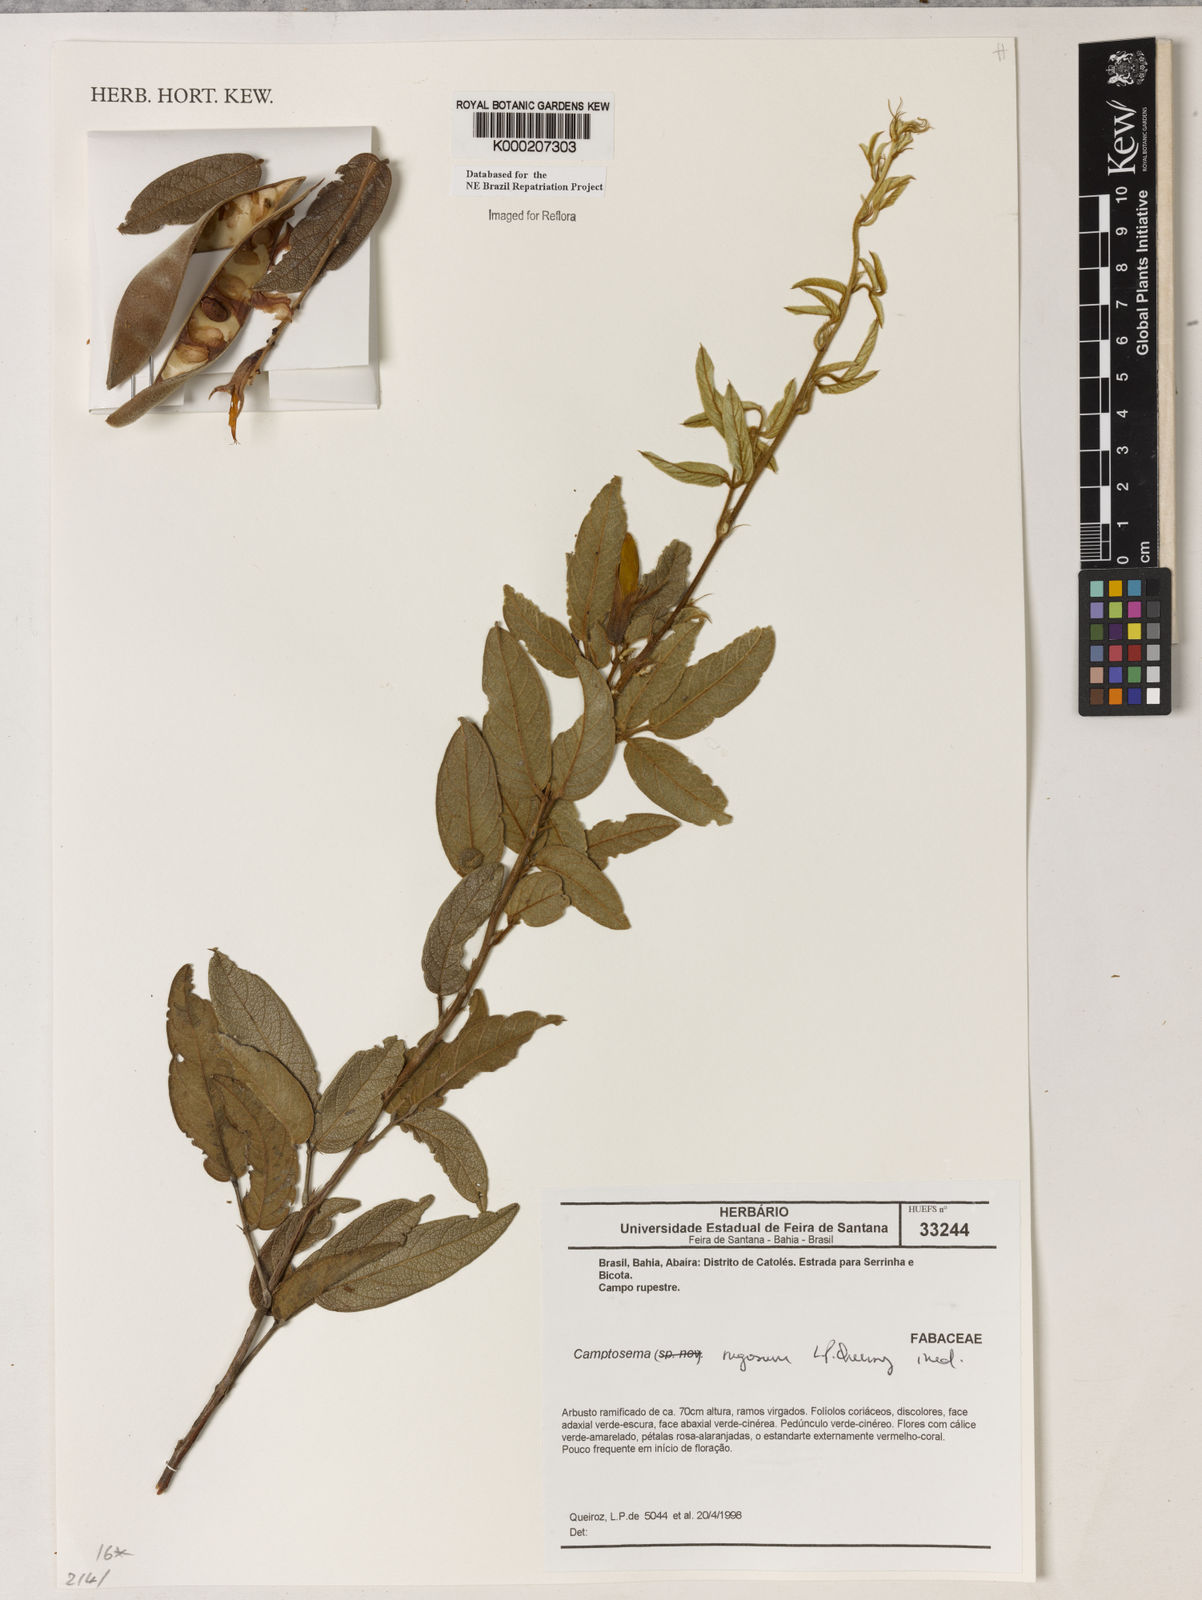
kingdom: Plantae
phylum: Tracheophyta
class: Magnoliopsida
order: Fabales
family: Fabaceae
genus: Camptosema
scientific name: Camptosema
